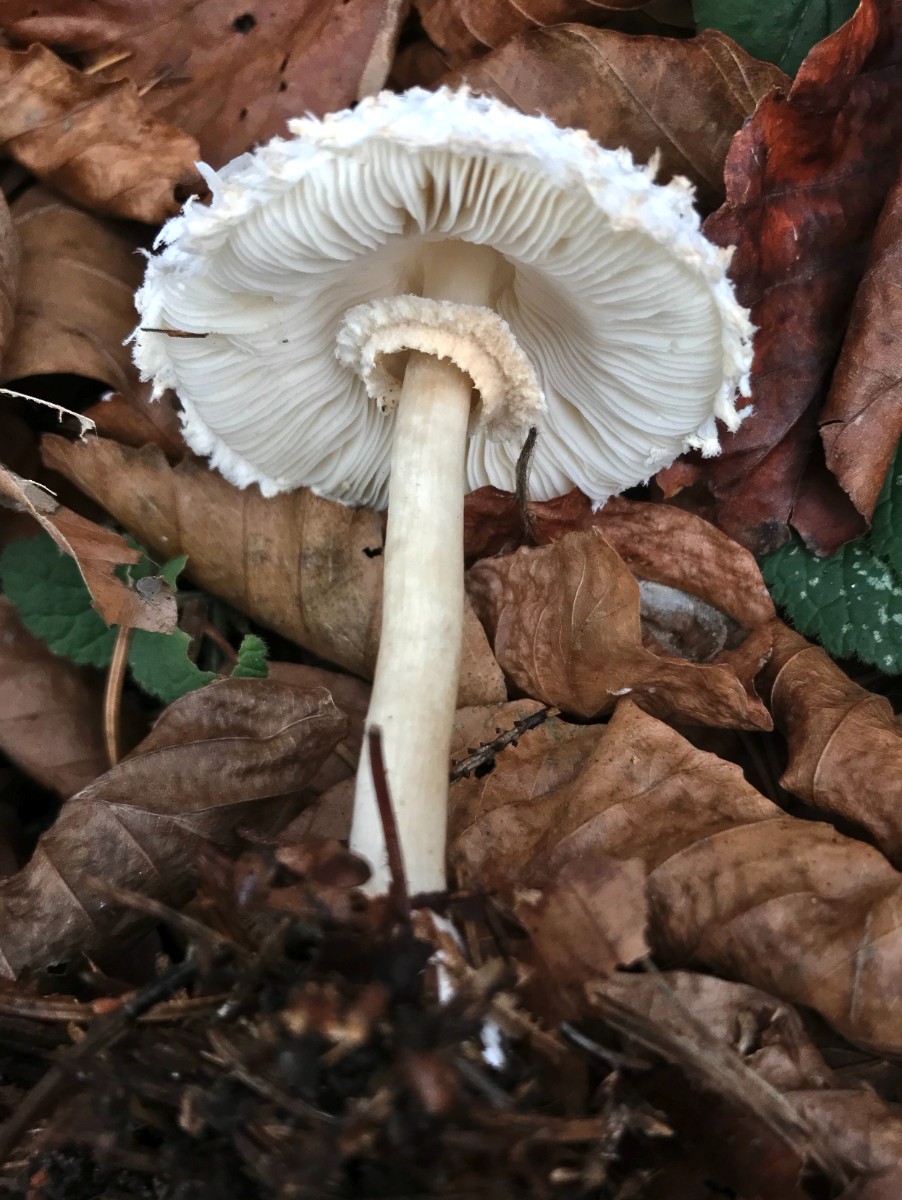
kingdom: Fungi
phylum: Basidiomycota
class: Agaricomycetes
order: Agaricales
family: Agaricaceae
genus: Leucoagaricus
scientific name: Leucoagaricus nympharum
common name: gran-silkehat
